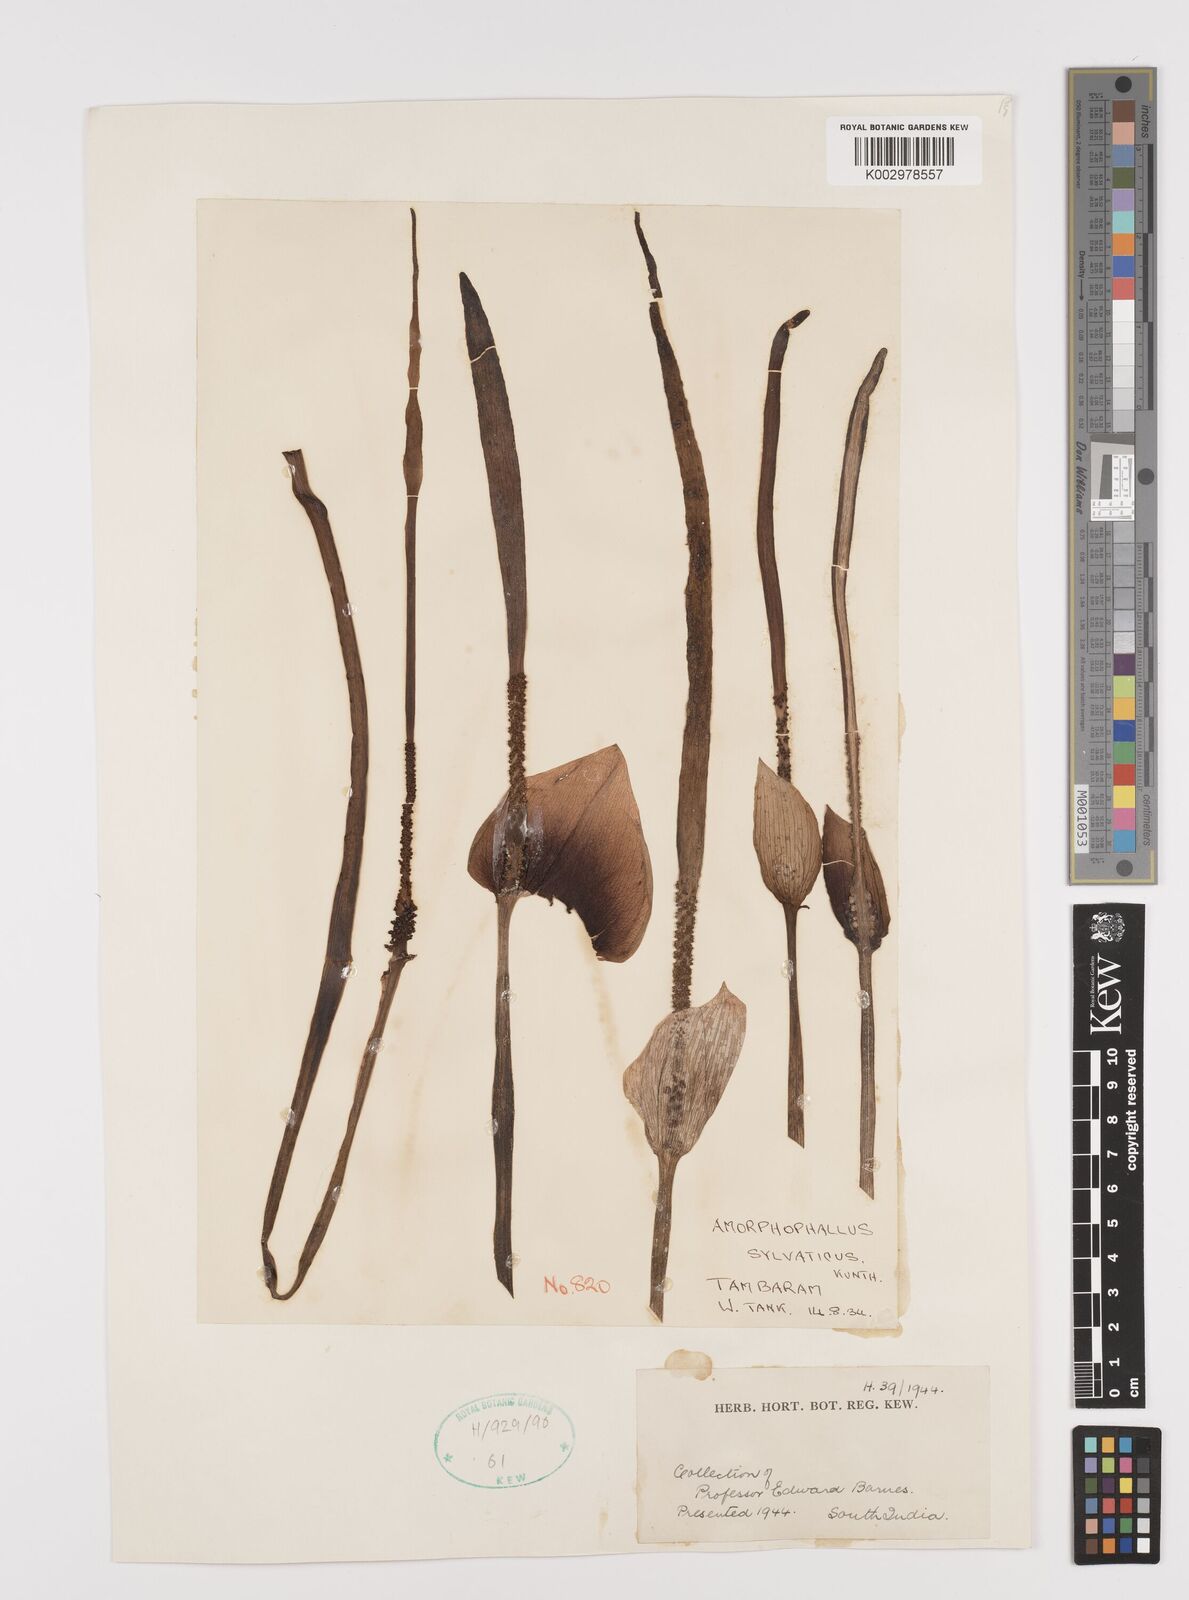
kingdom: Plantae
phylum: Tracheophyta
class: Liliopsida
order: Alismatales
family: Araceae
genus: Amorphophallus
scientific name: Amorphophallus sylvaticus
